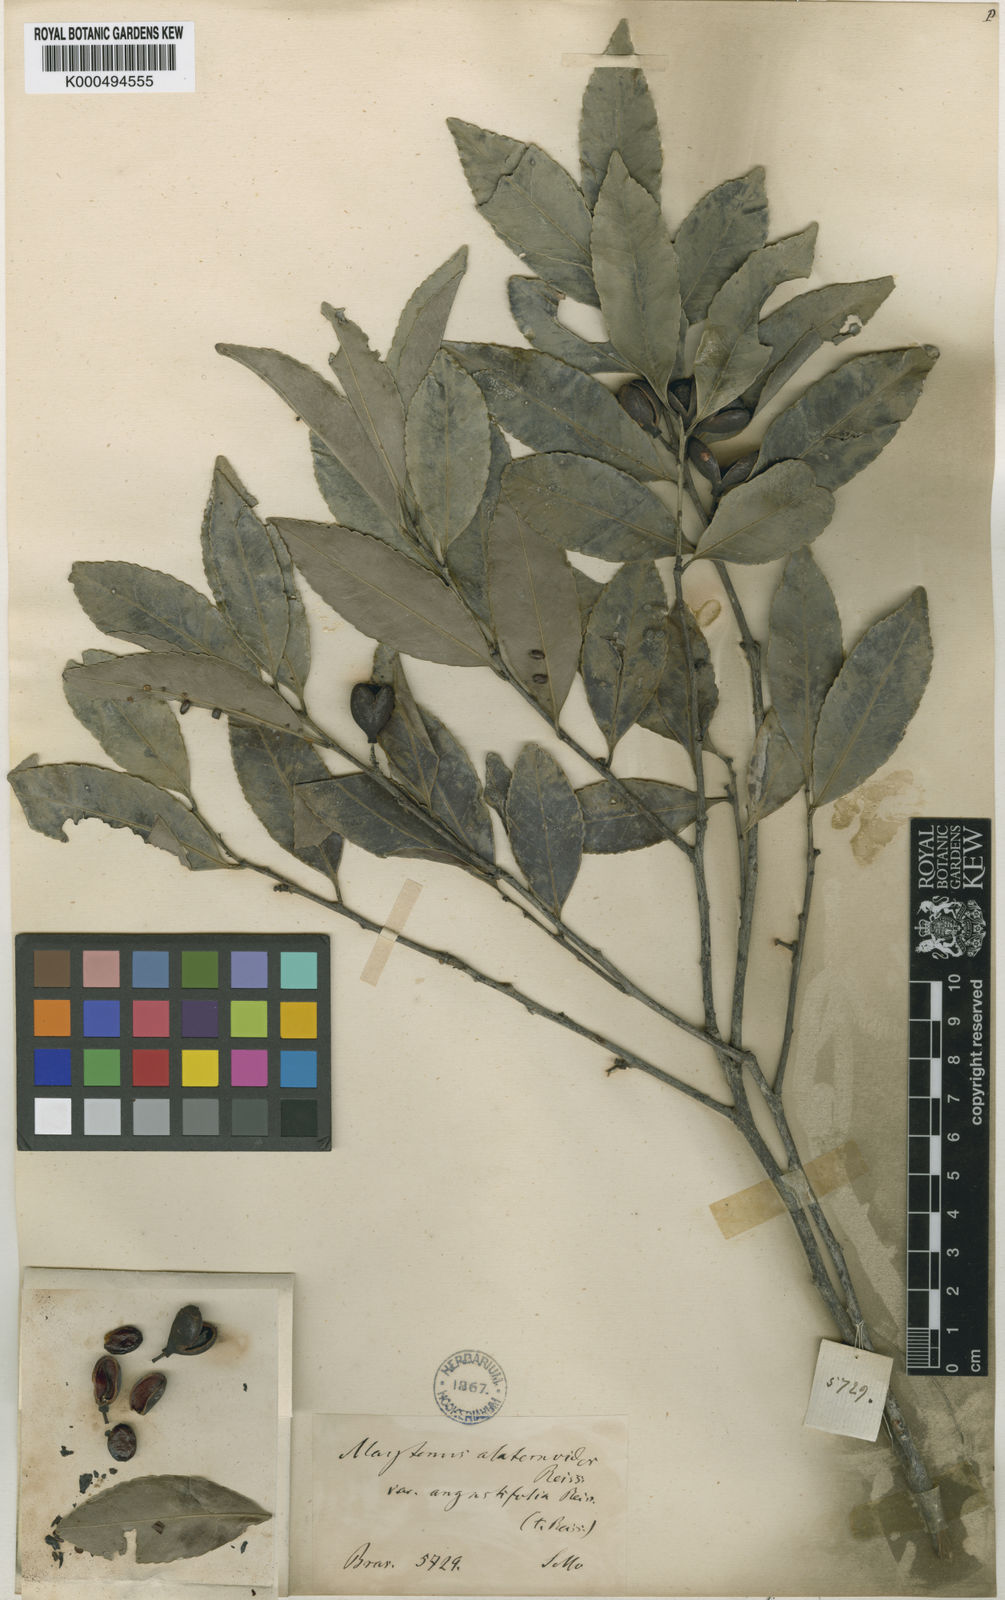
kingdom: Plantae
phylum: Tracheophyta
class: Magnoliopsida
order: Celastrales
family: Celastraceae
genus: Maytenus
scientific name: Maytenus alaternoides
